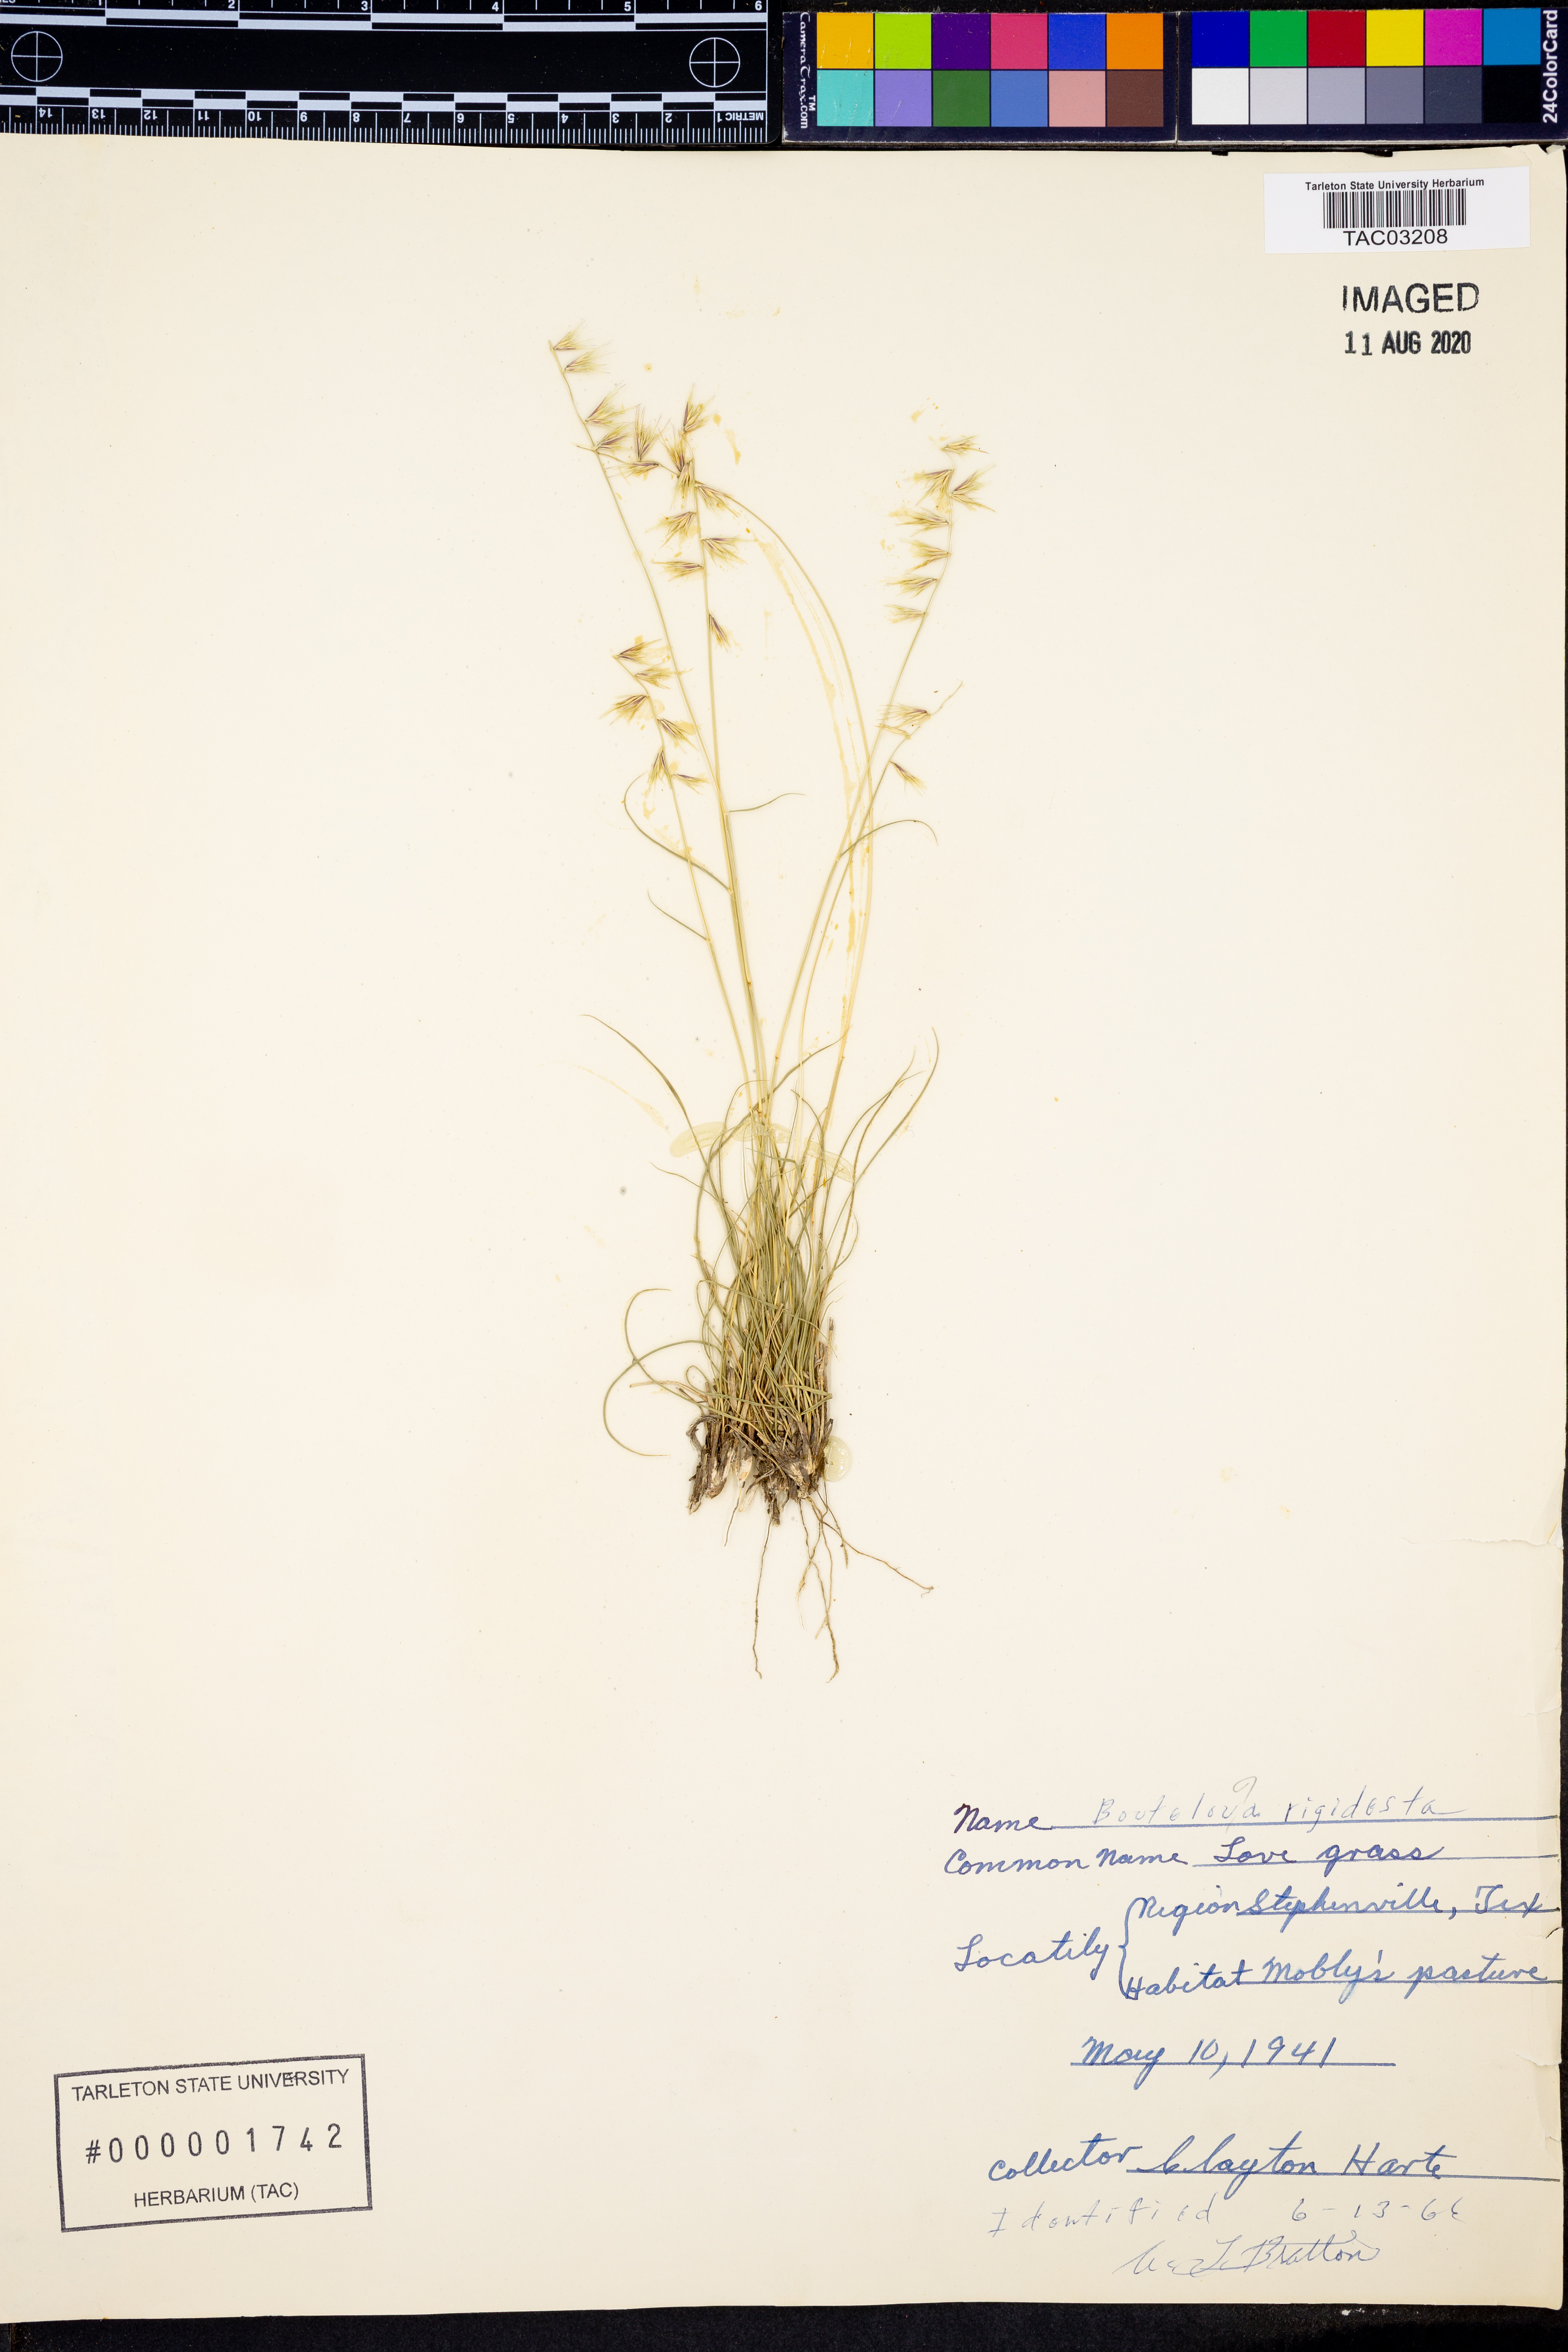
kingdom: Plantae
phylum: Tracheophyta
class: Liliopsida
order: Poales
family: Poaceae
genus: Bouteloua
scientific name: Bouteloua rigidiseta
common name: Texas grama
